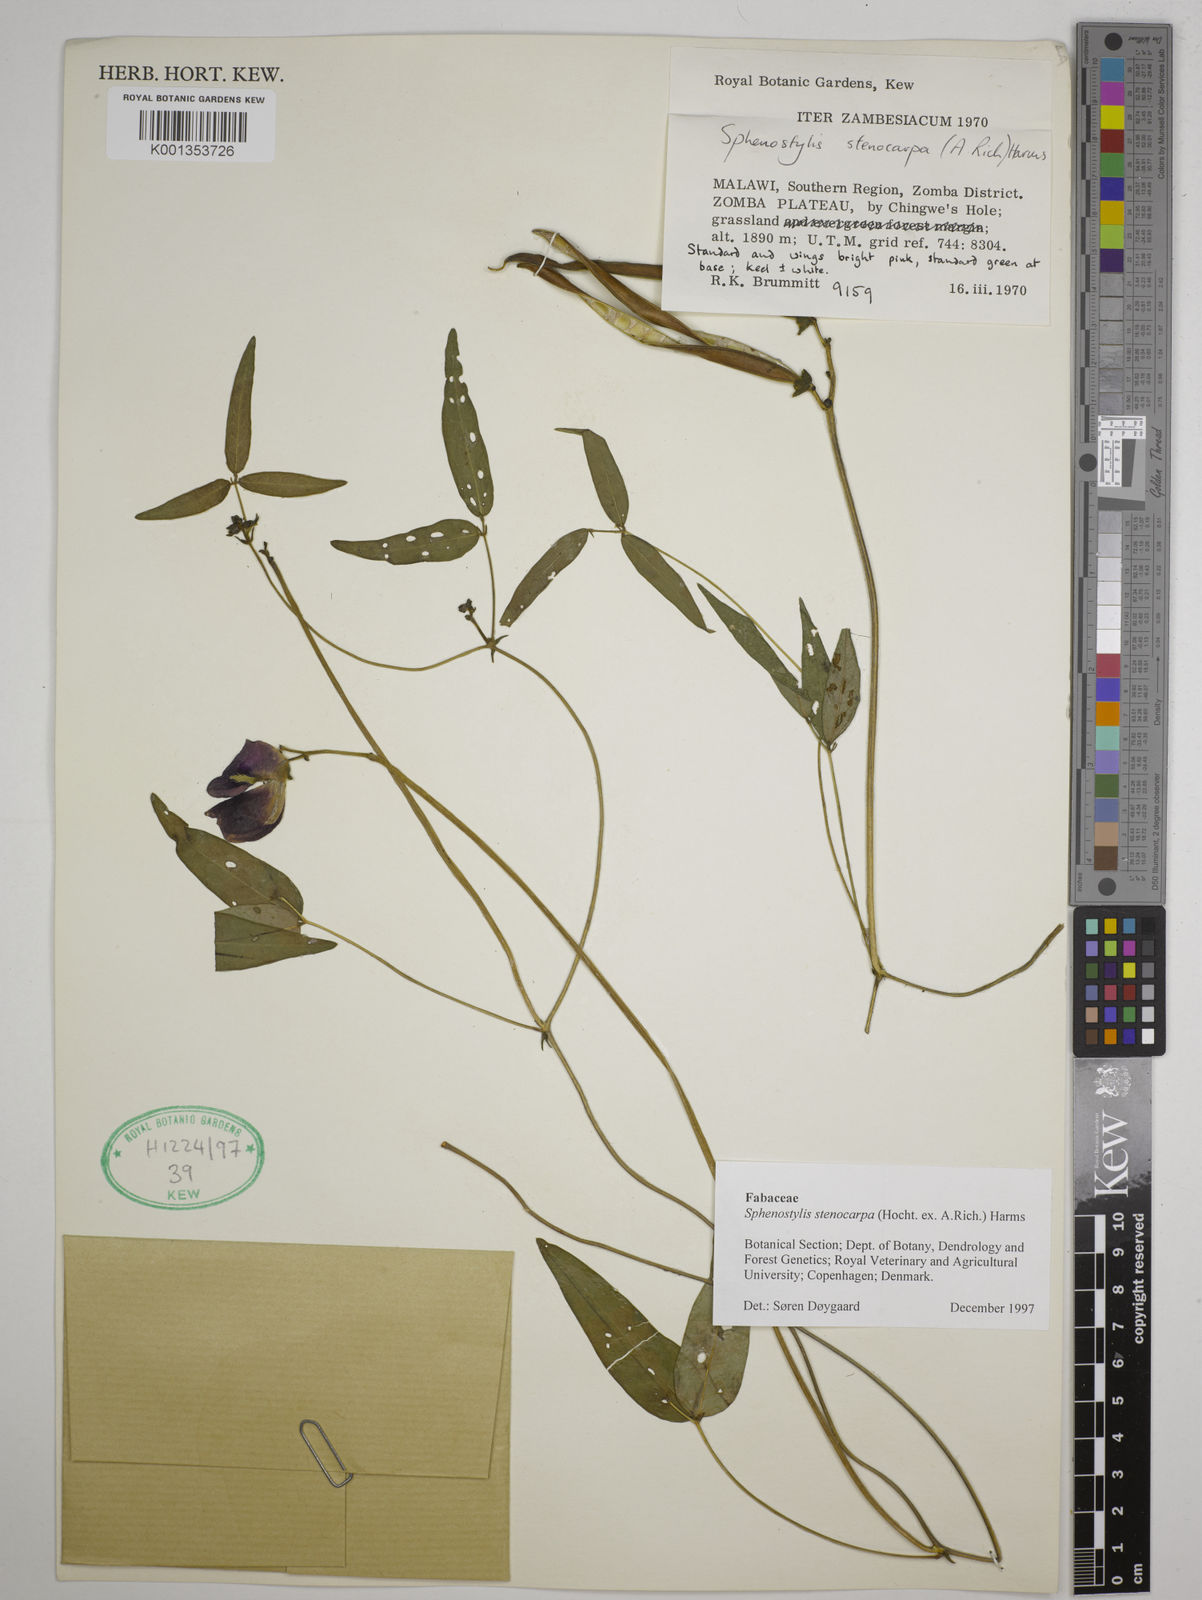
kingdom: Plantae
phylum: Tracheophyta
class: Magnoliopsida
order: Fabales
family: Fabaceae
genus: Sphenostylis
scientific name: Sphenostylis stenocarpa
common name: Yam-pea
